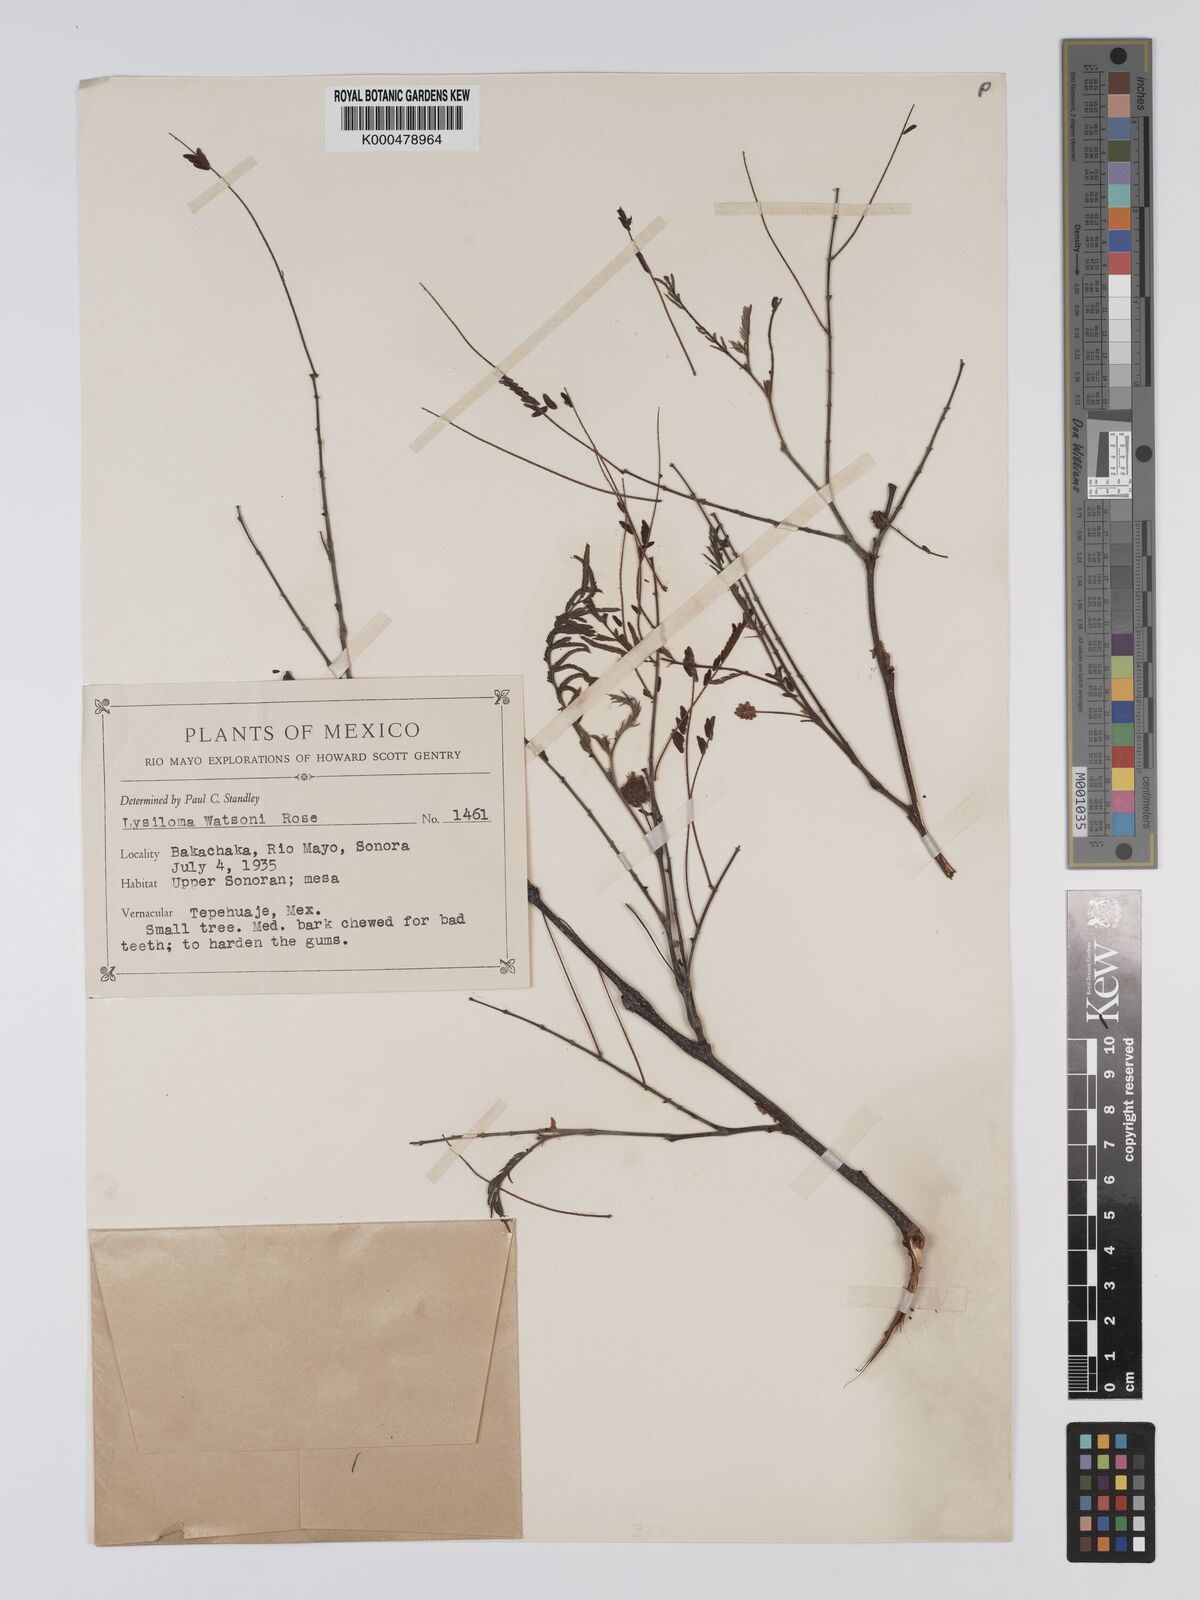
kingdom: Plantae
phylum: Tracheophyta
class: Magnoliopsida
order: Fabales
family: Fabaceae
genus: Lysiloma
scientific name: Lysiloma watsonii
